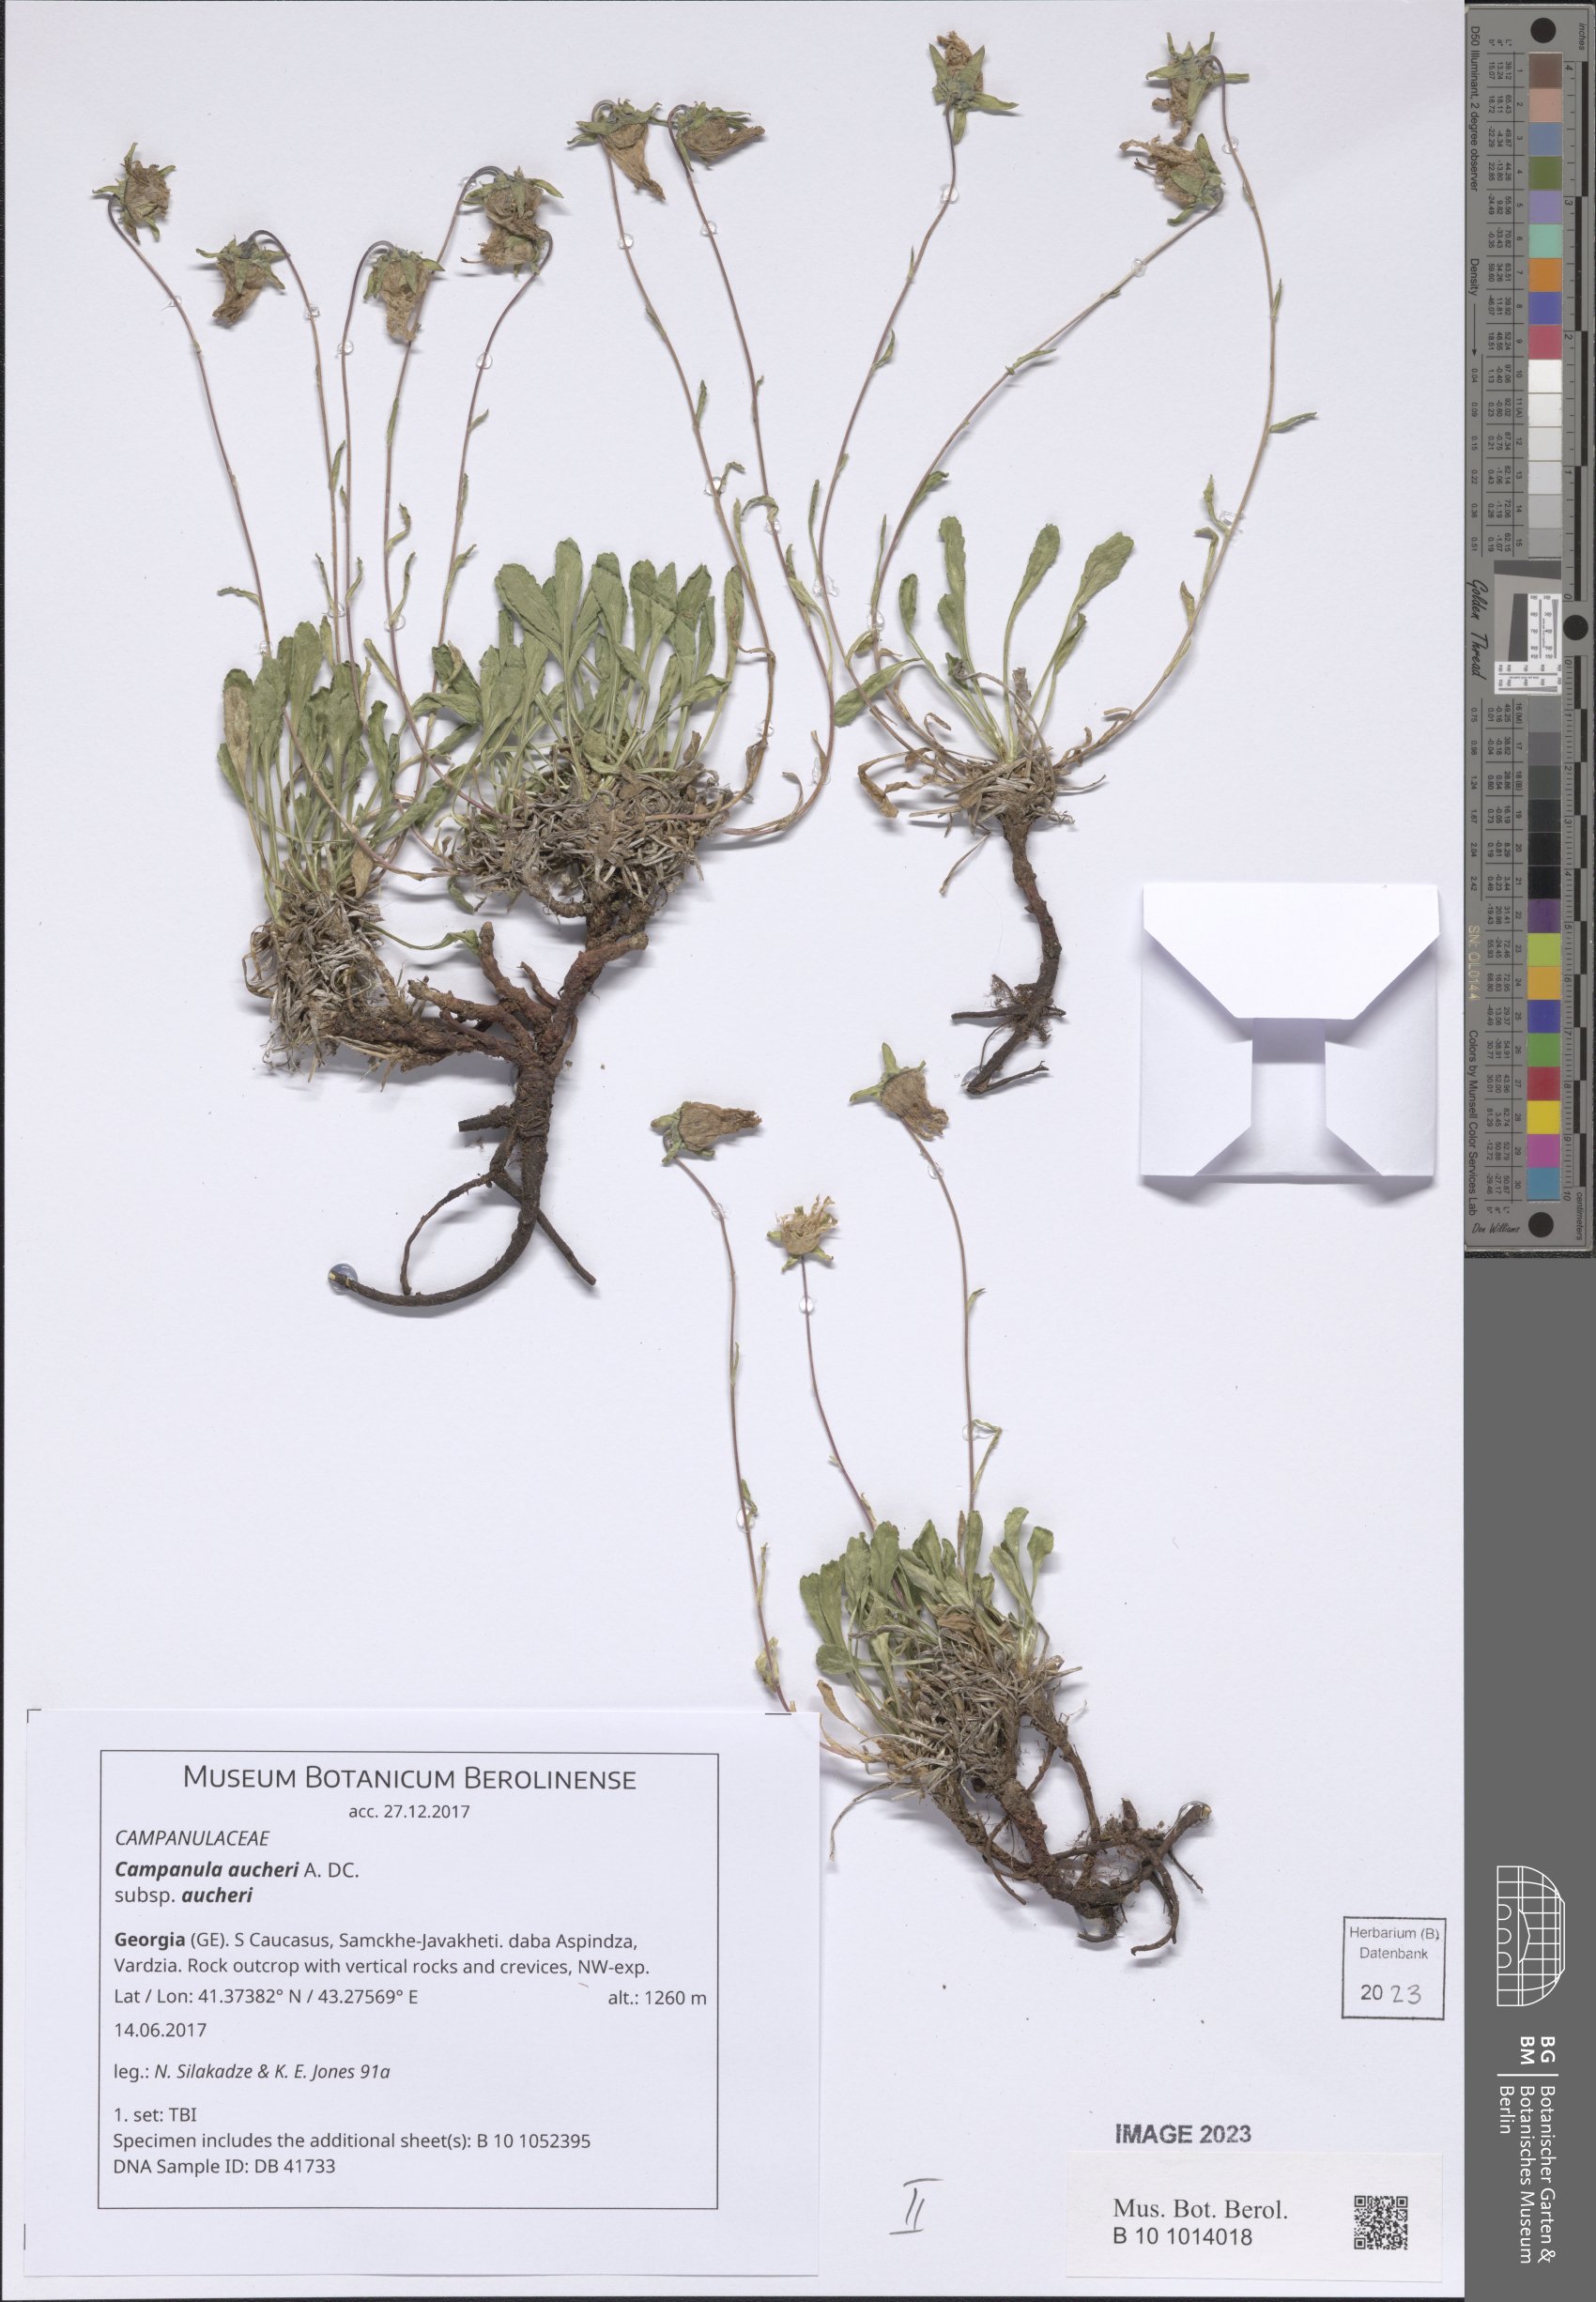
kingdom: Plantae
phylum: Tracheophyta
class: Magnoliopsida
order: Asterales
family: Campanulaceae
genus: Campanula
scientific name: Campanula saxifraga
